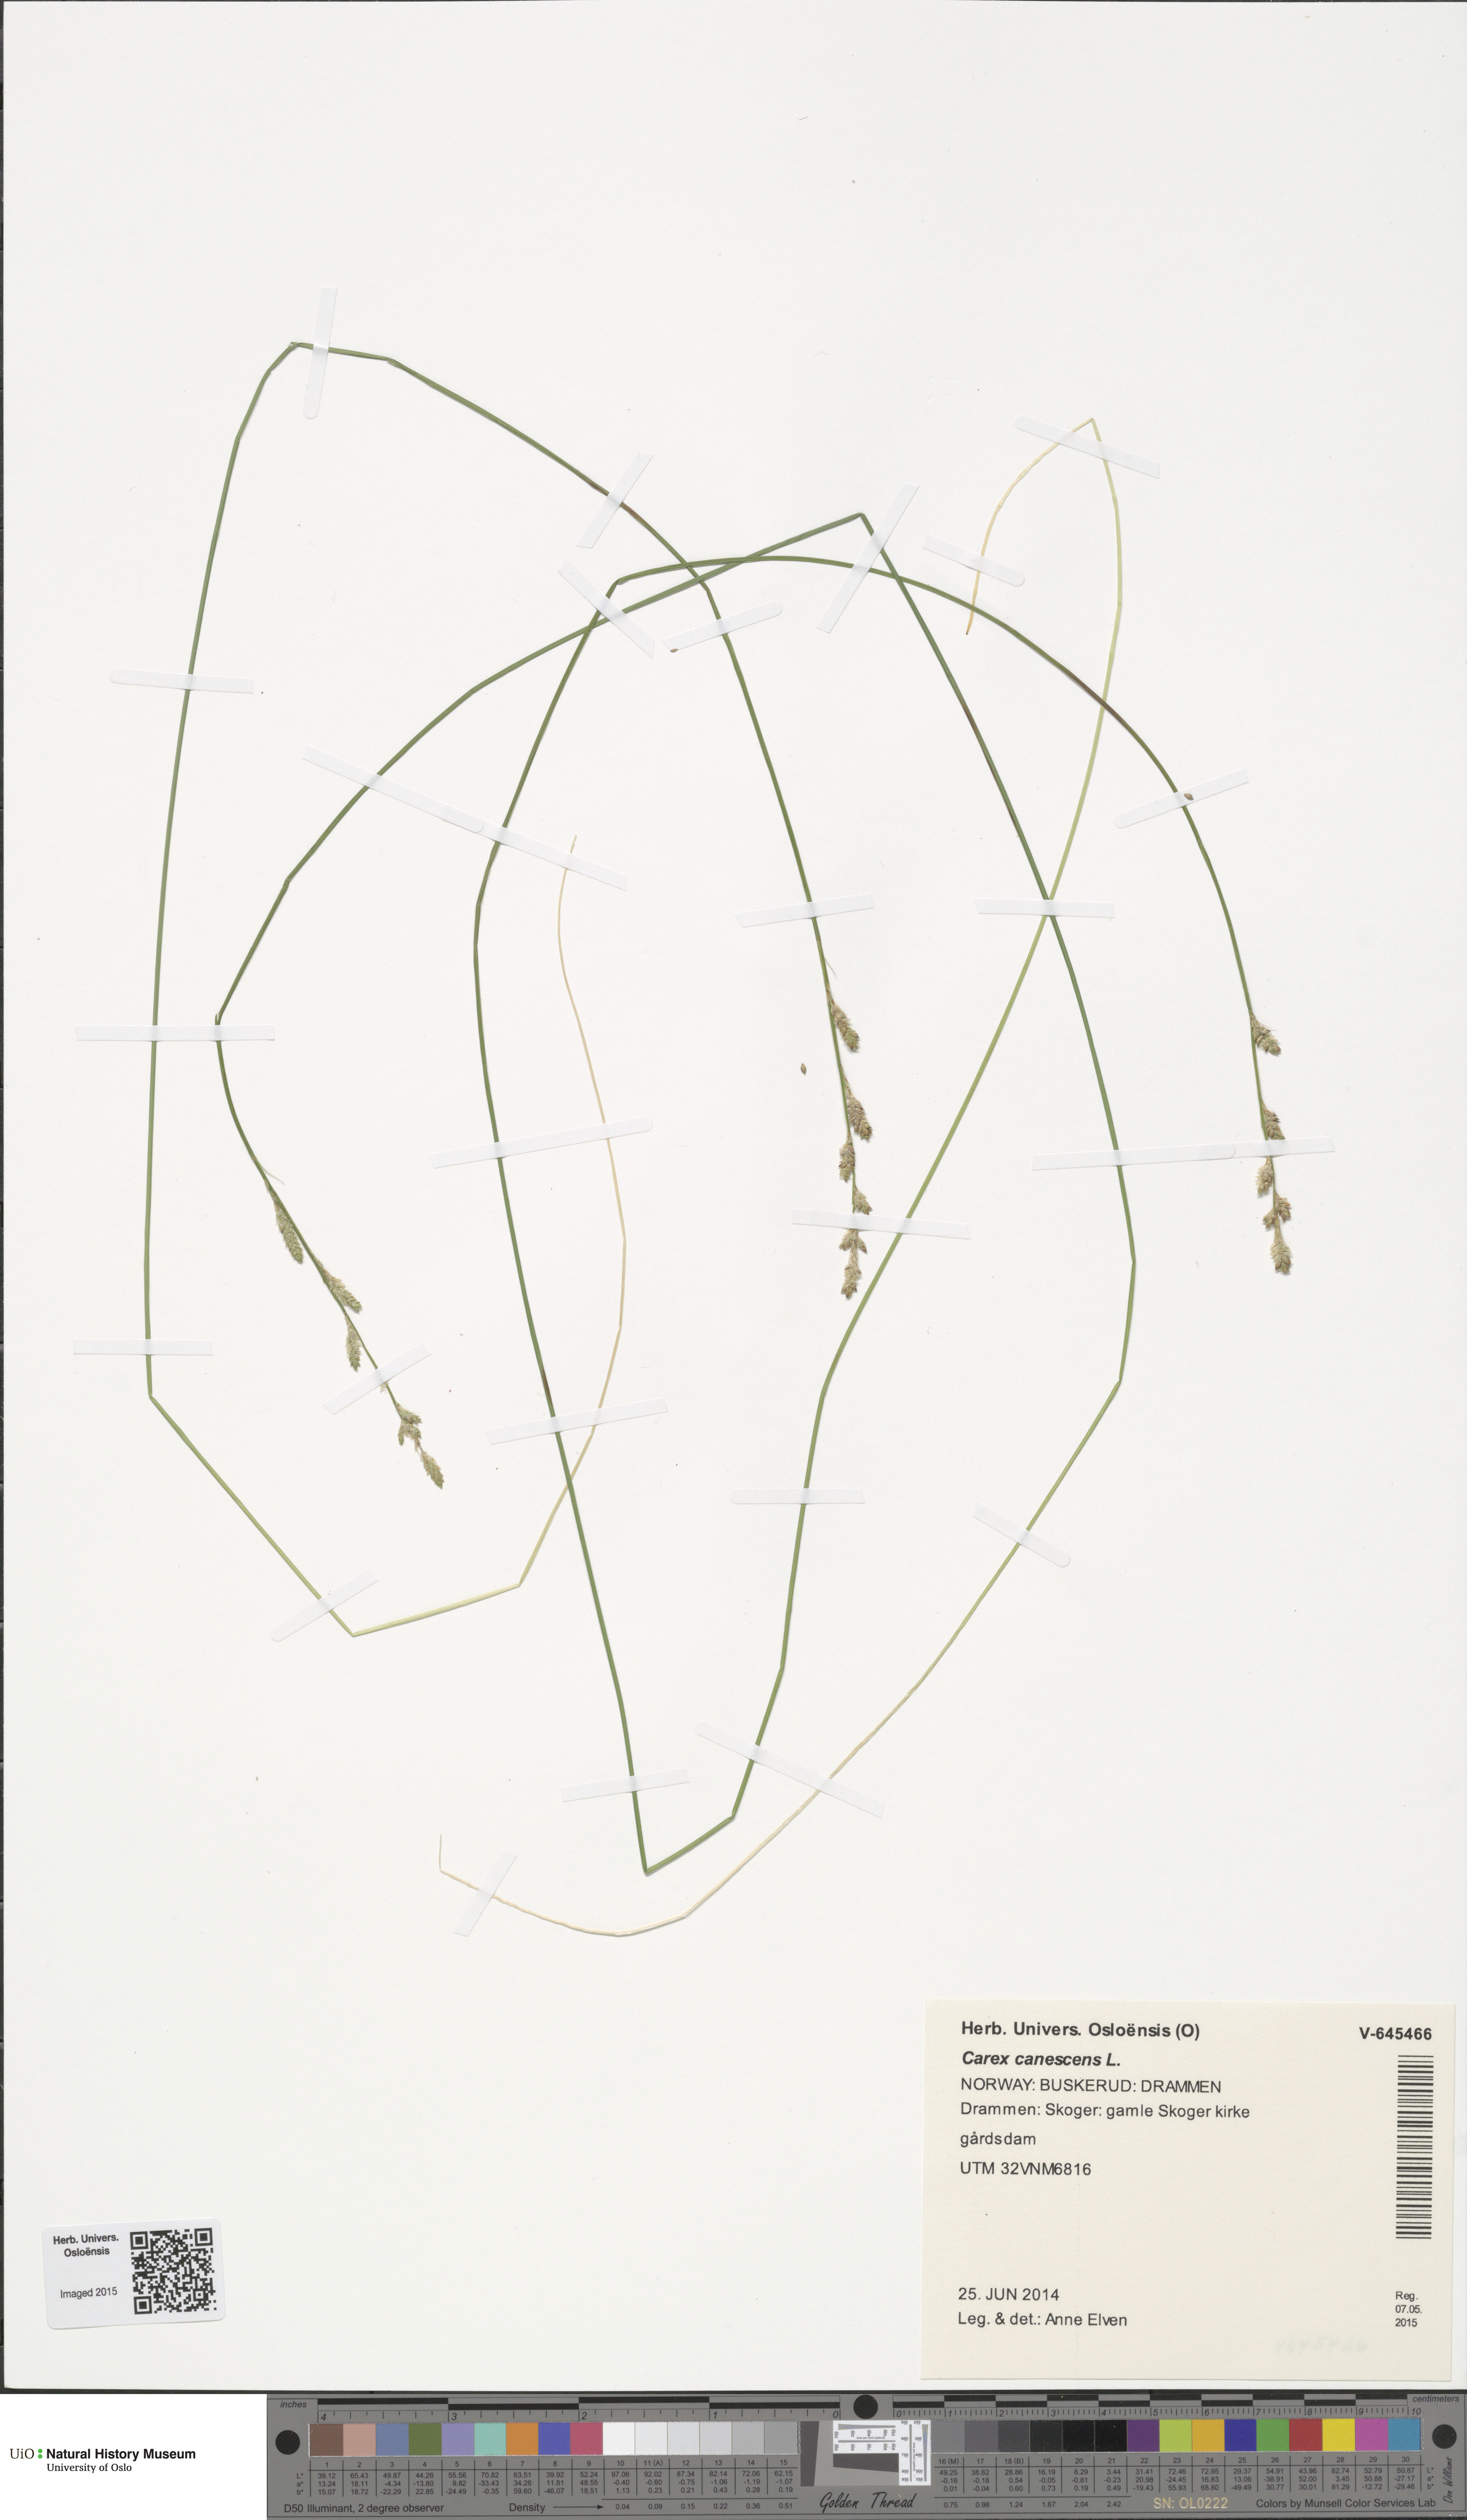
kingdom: Plantae
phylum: Tracheophyta
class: Liliopsida
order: Poales
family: Cyperaceae
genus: Carex
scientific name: Carex canescens
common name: White sedge
